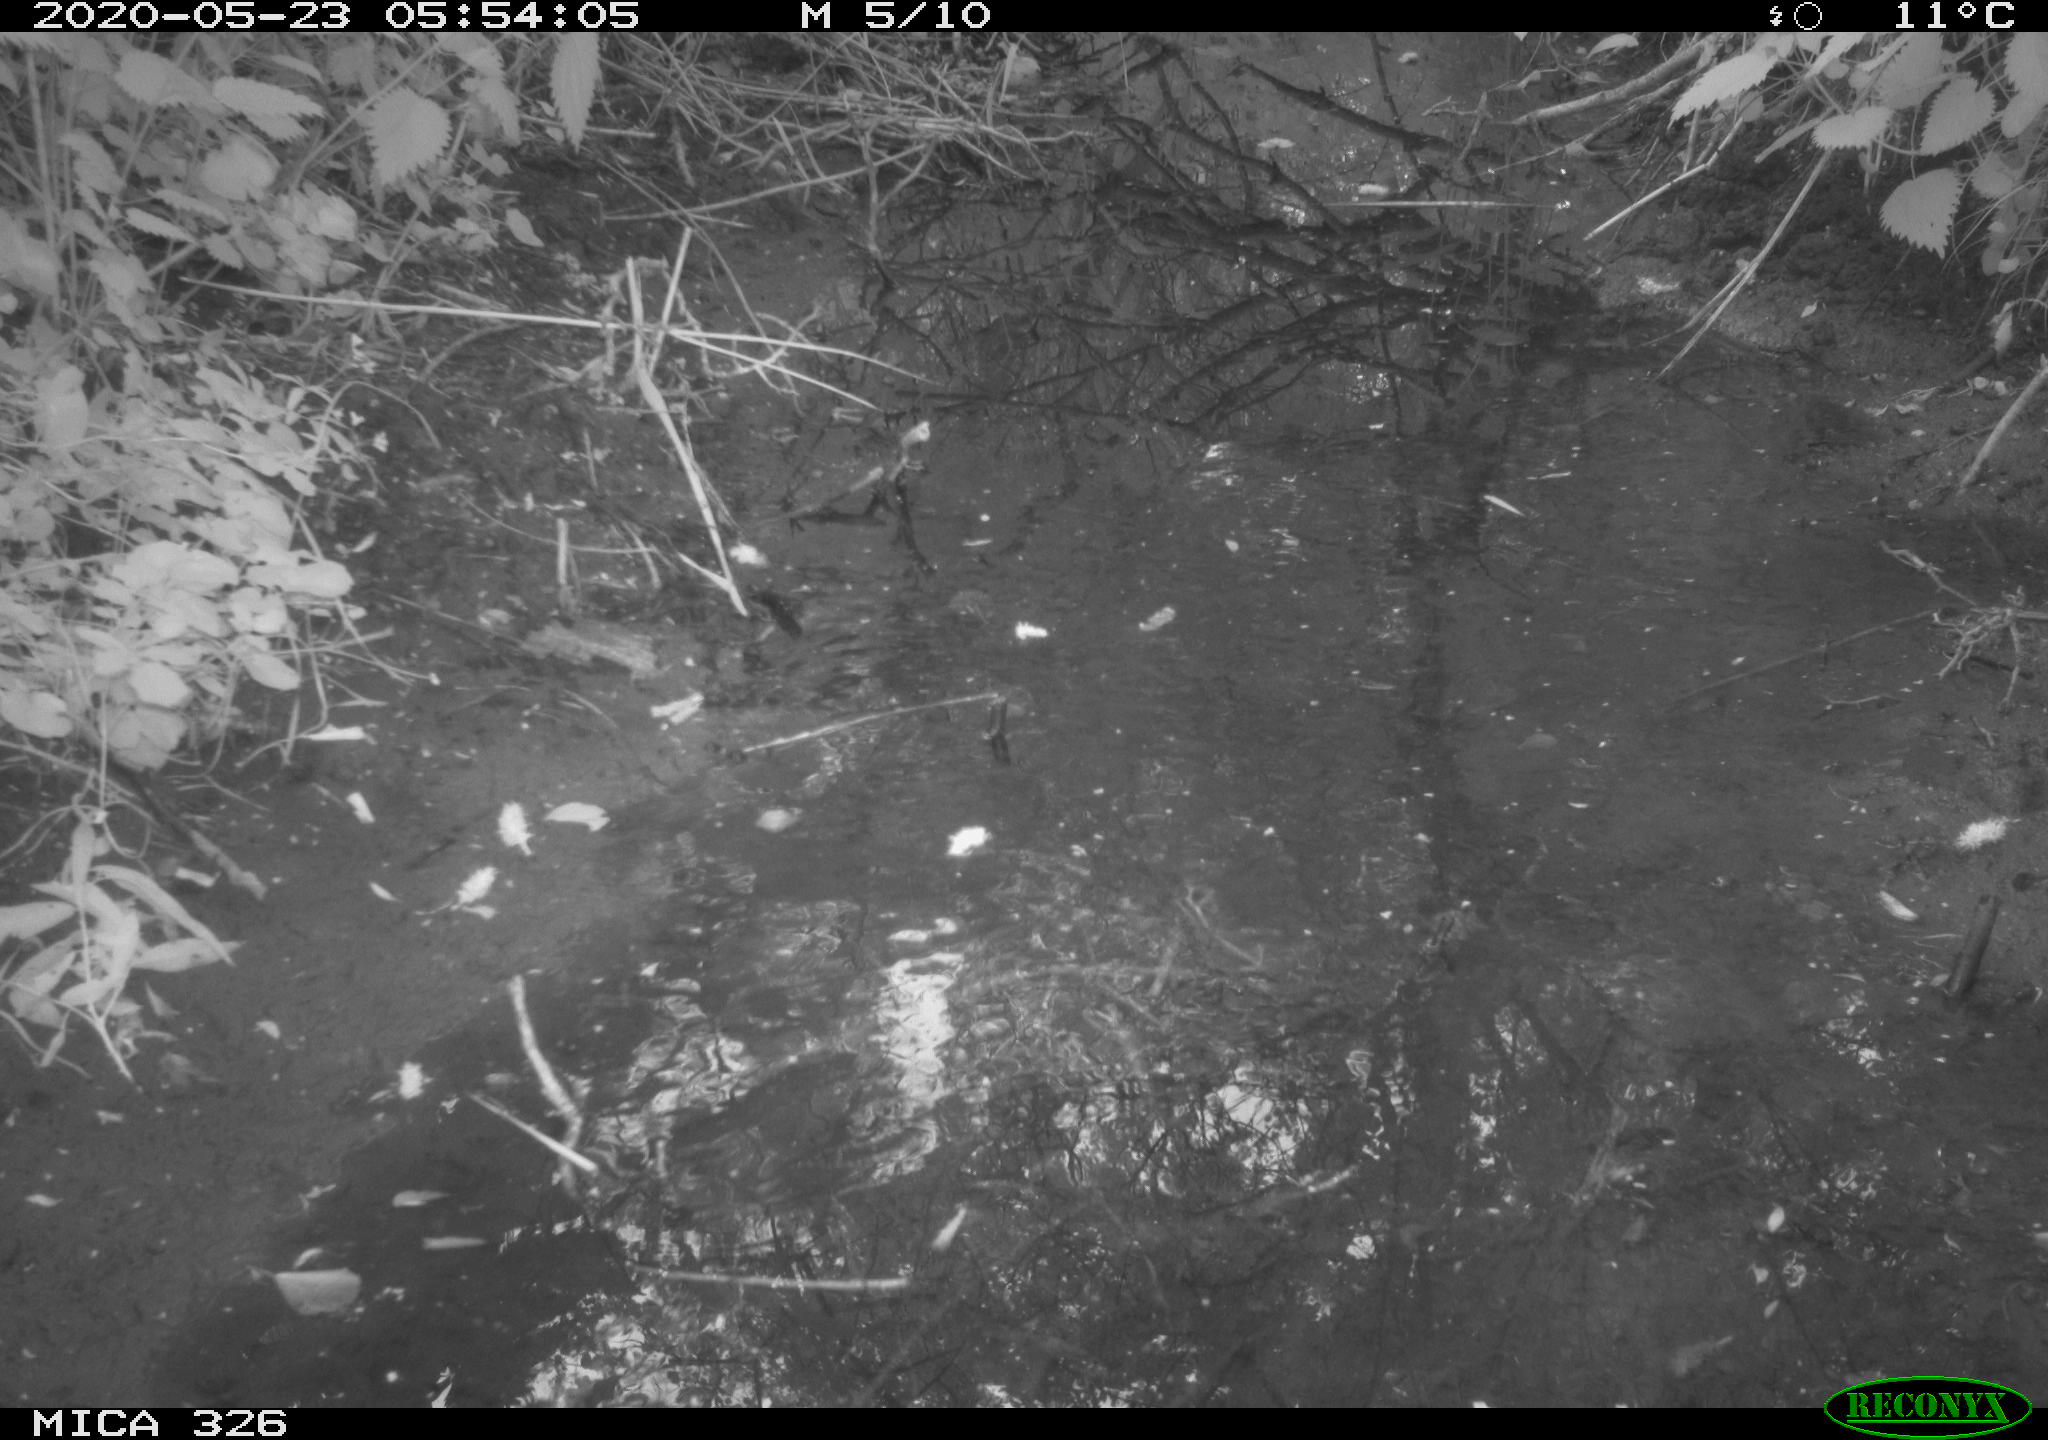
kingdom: Animalia
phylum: Chordata
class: Aves
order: Passeriformes
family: Turdidae
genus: Turdus
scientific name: Turdus philomelos
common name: Song thrush
